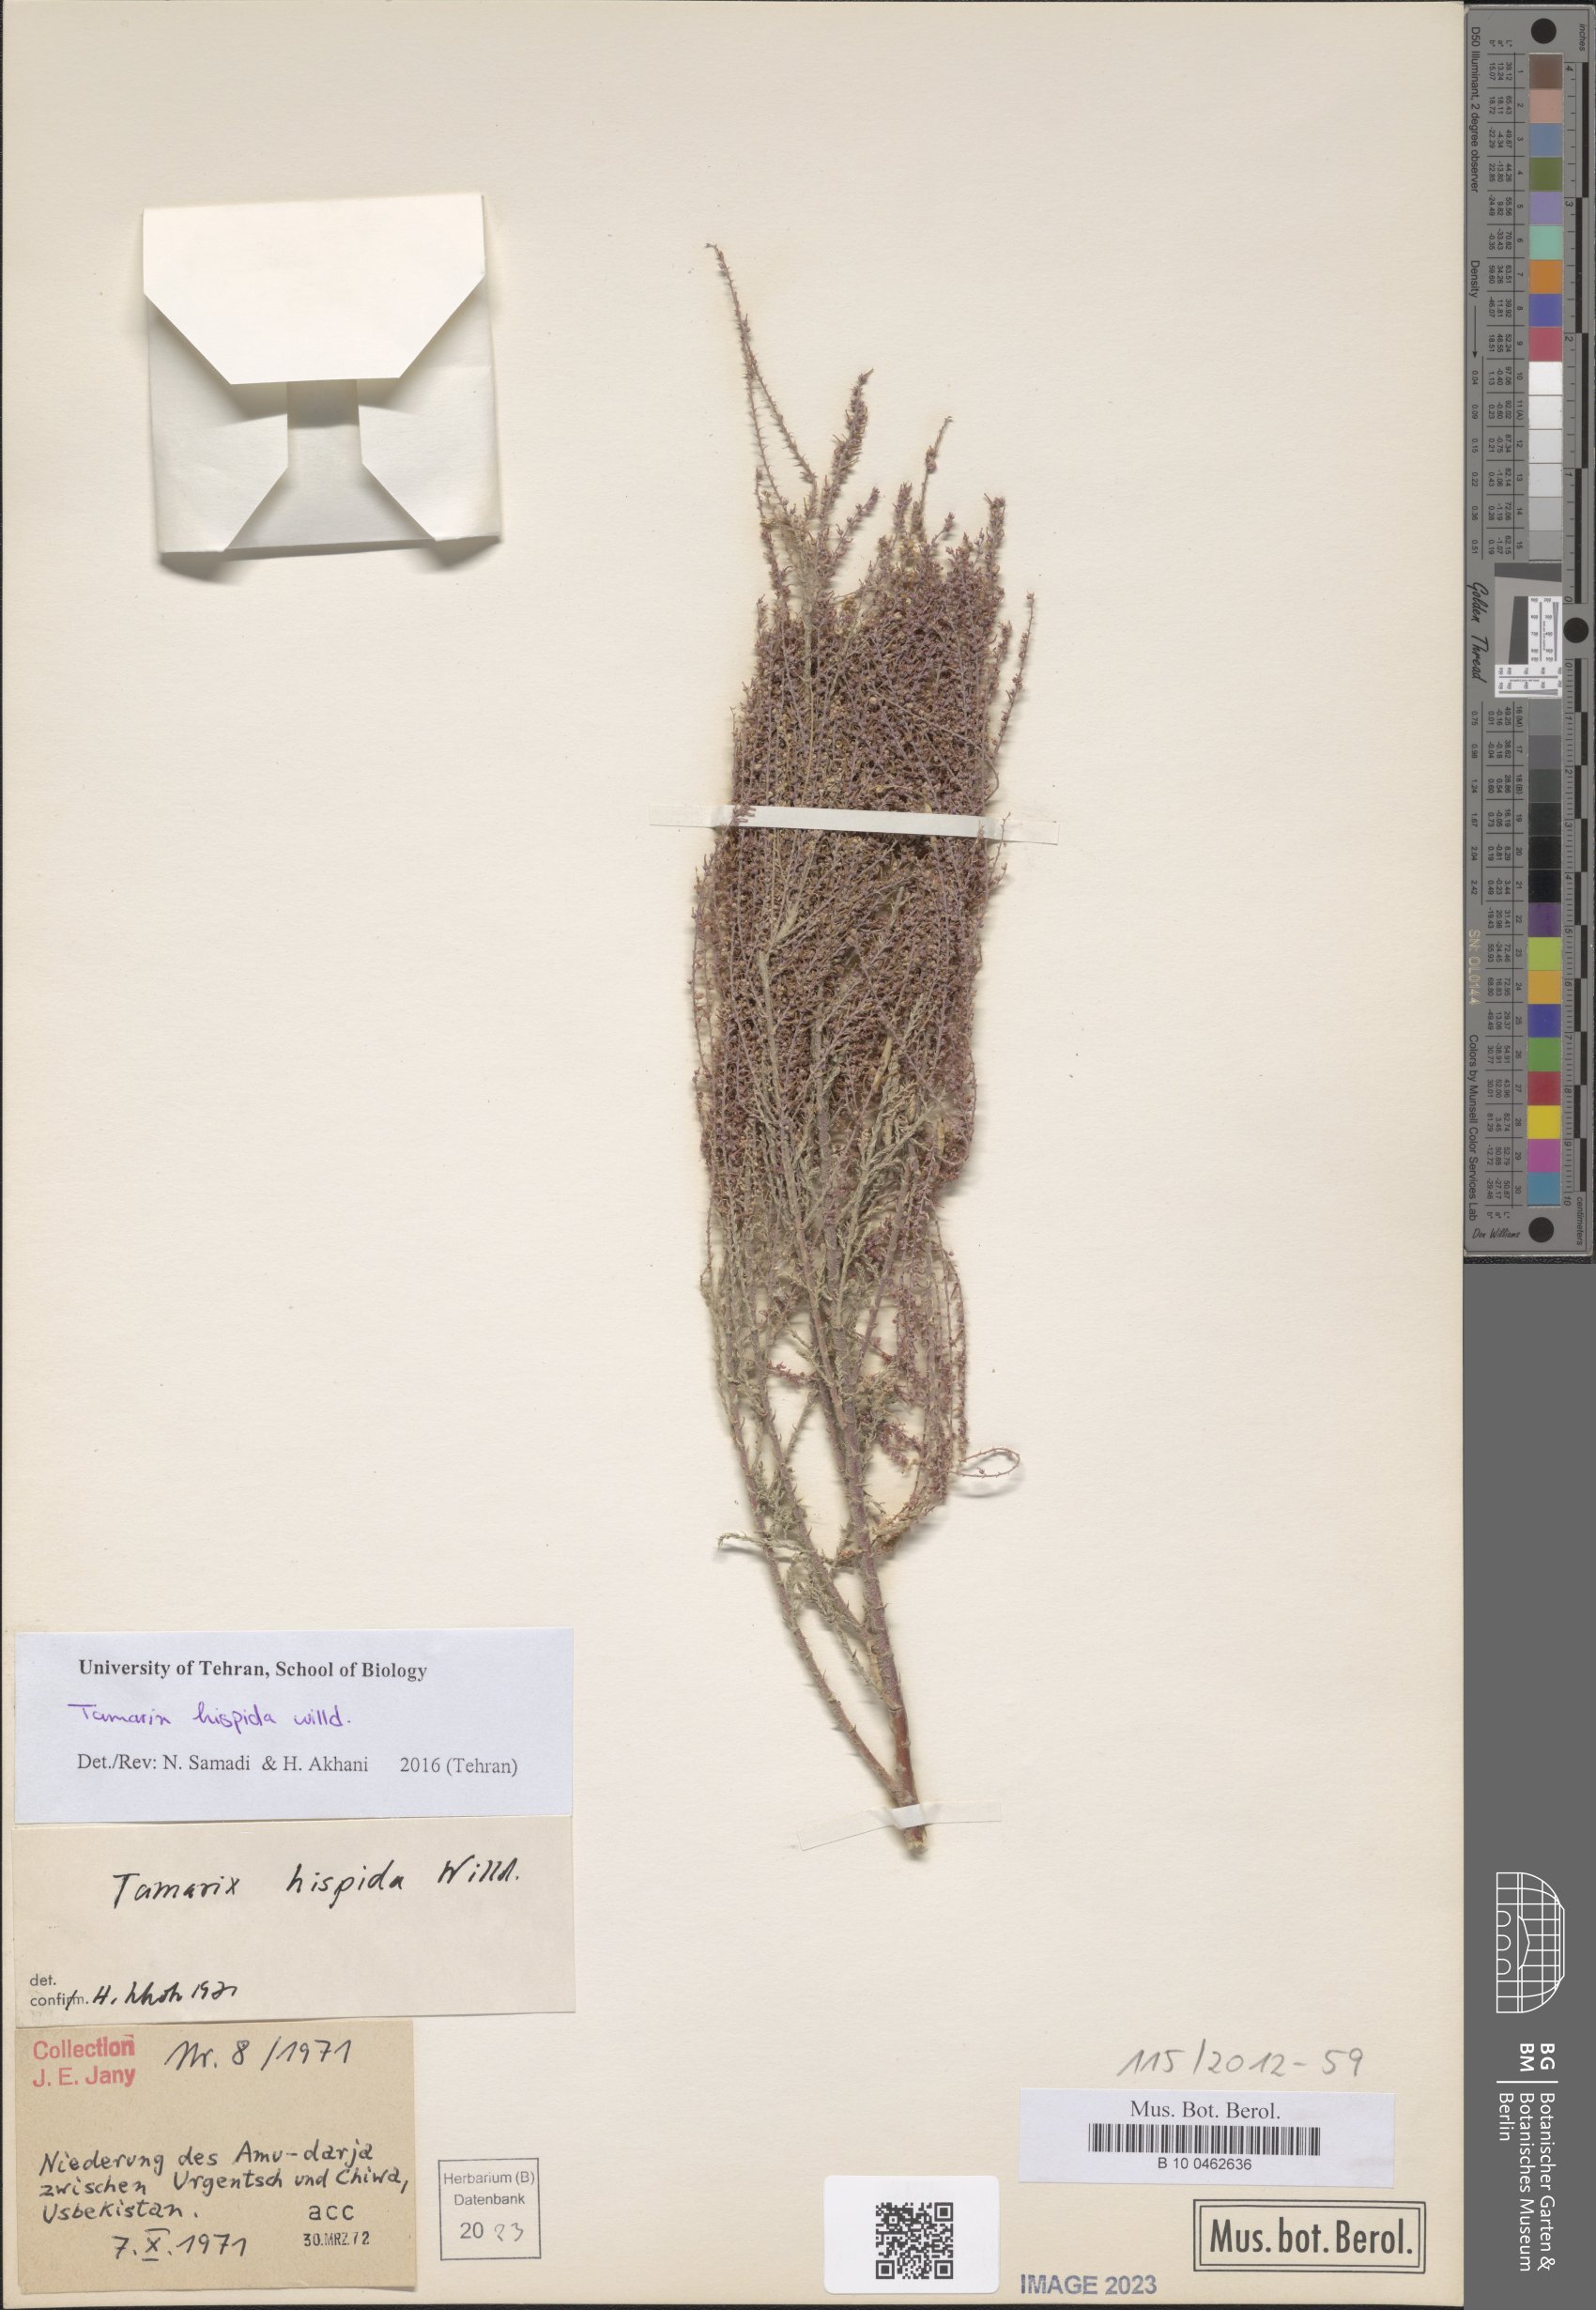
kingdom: Plantae
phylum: Tracheophyta
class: Magnoliopsida
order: Caryophyllales
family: Tamaricaceae
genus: Tamarix
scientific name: Tamarix hispida
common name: Kashgar tamarisk
